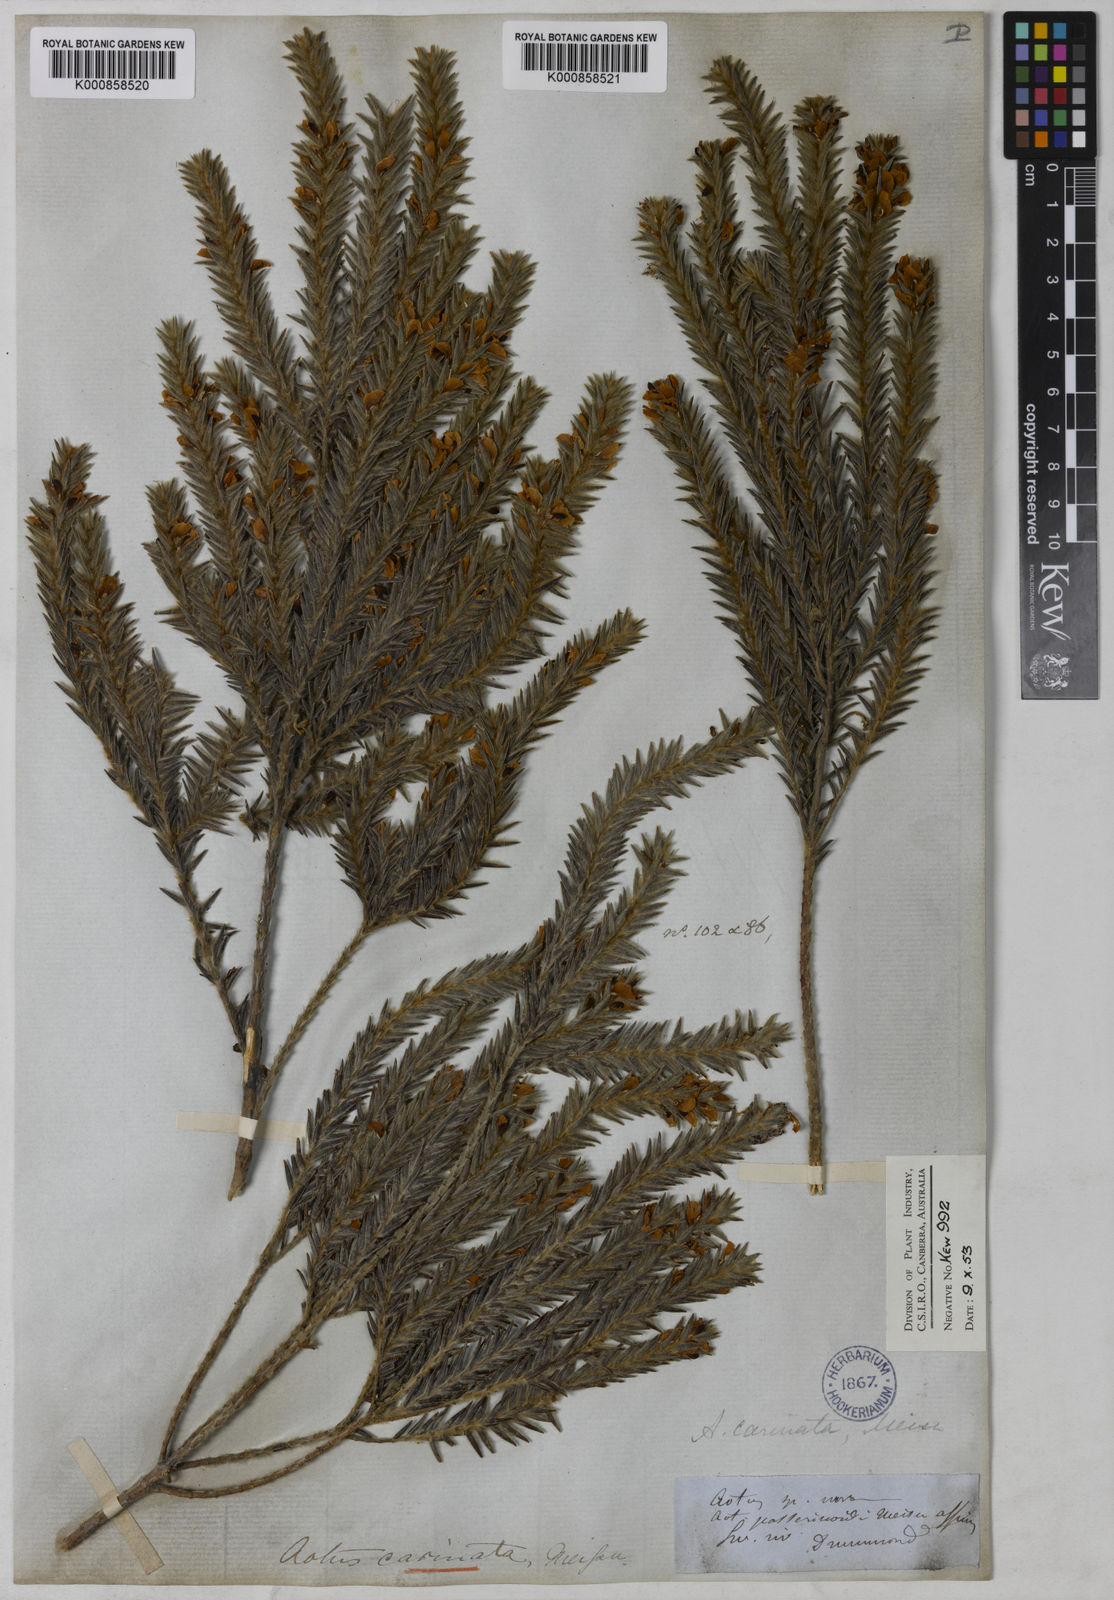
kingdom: Plantae
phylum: Tracheophyta
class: Magnoliopsida
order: Fabales
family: Fabaceae
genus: Aotus
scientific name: Aotus carinata
